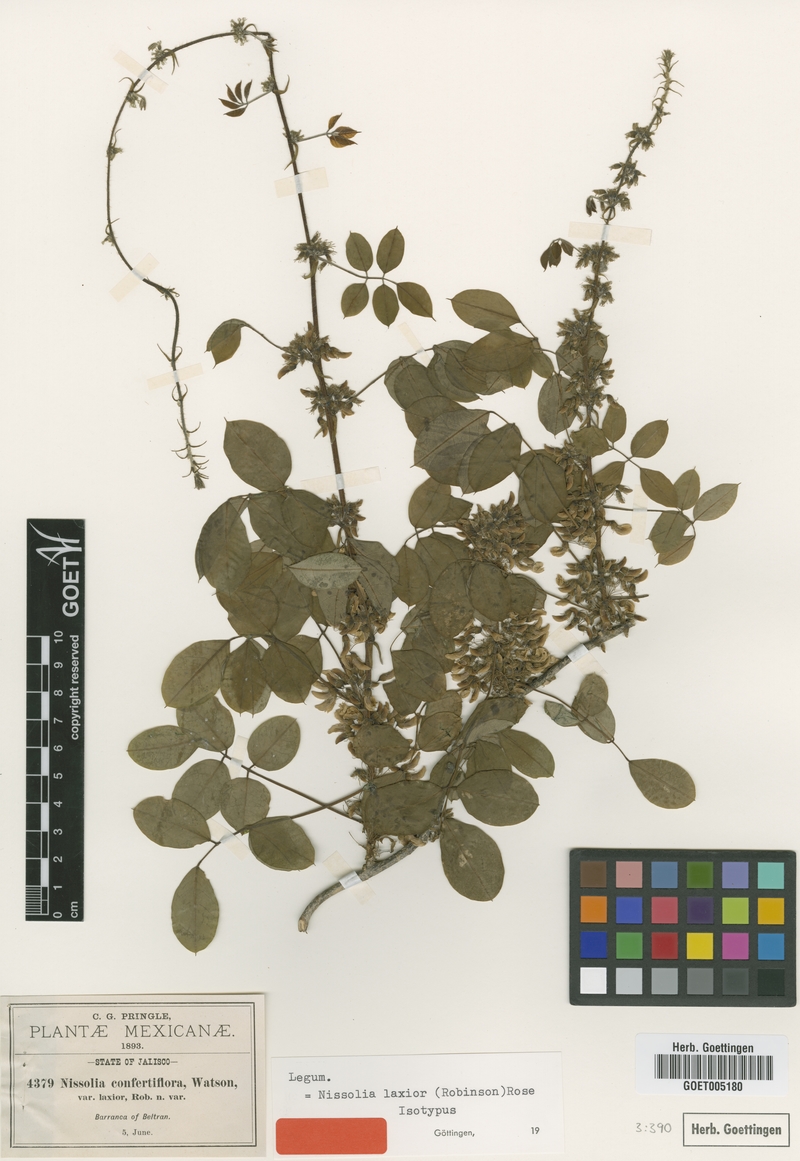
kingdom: Plantae
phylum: Tracheophyta
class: Magnoliopsida
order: Fabales
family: Fabaceae
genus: Nissolia
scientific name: Nissolia laxior
